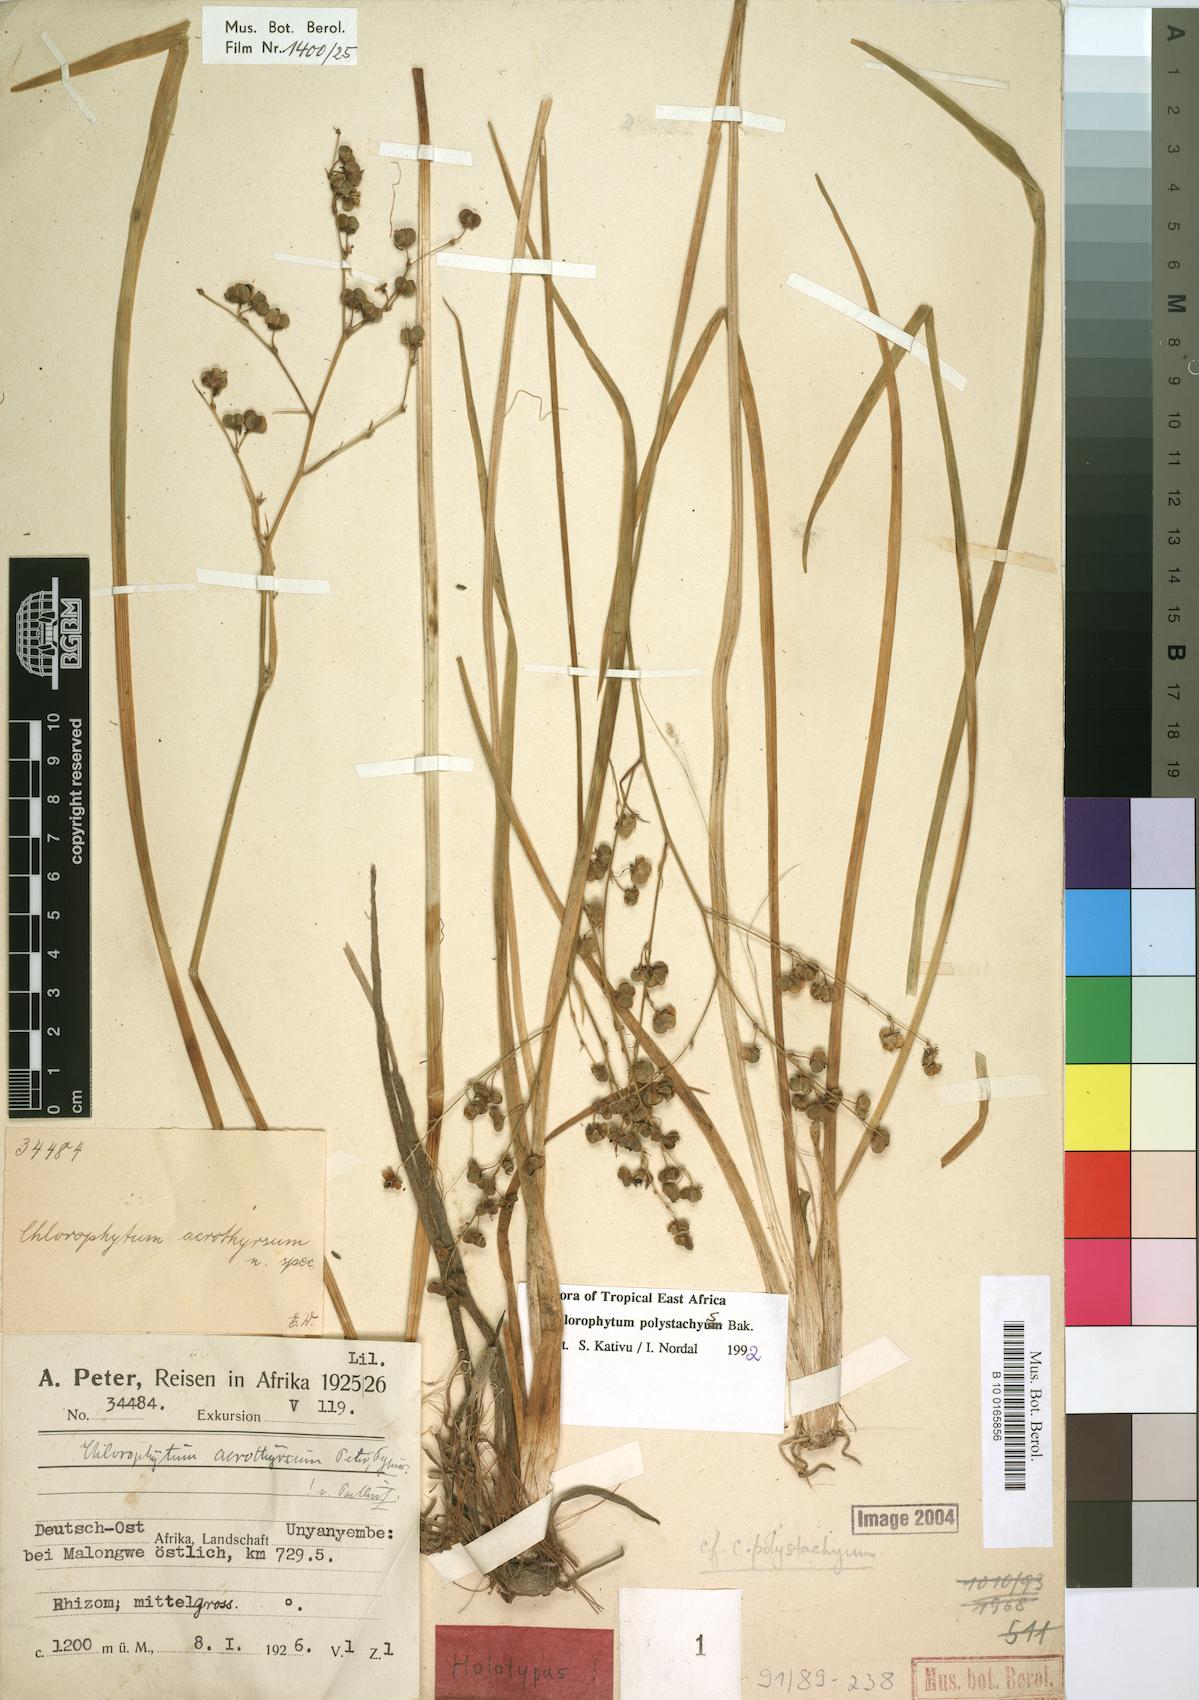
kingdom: Plantae
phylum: Tracheophyta
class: Liliopsida
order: Asparagales
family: Asparagaceae
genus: Chlorophytum
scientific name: Chlorophytum polystachys
